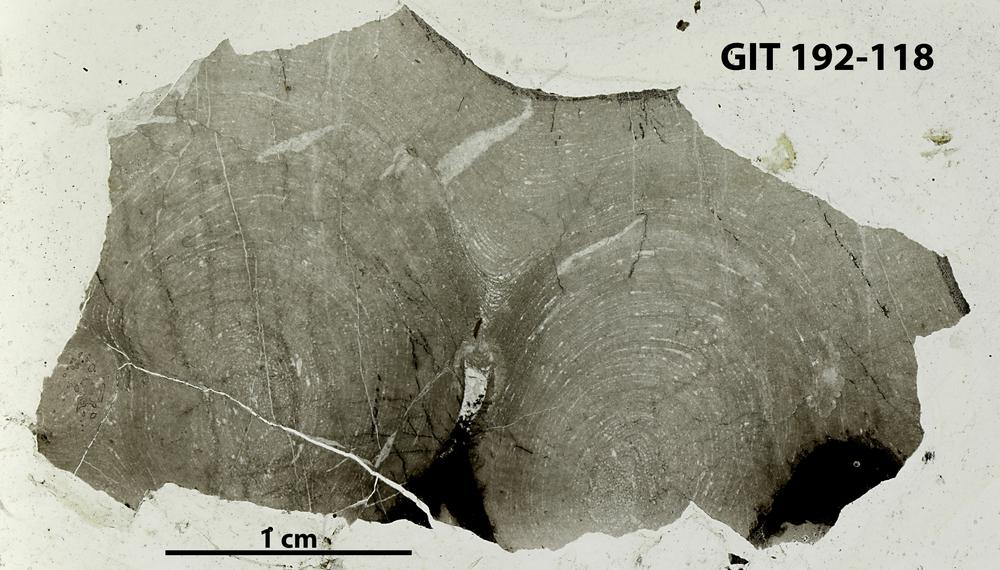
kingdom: Animalia
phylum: Porifera
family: Densastromatidae
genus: Araneosustroma
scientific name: Araneosustroma
